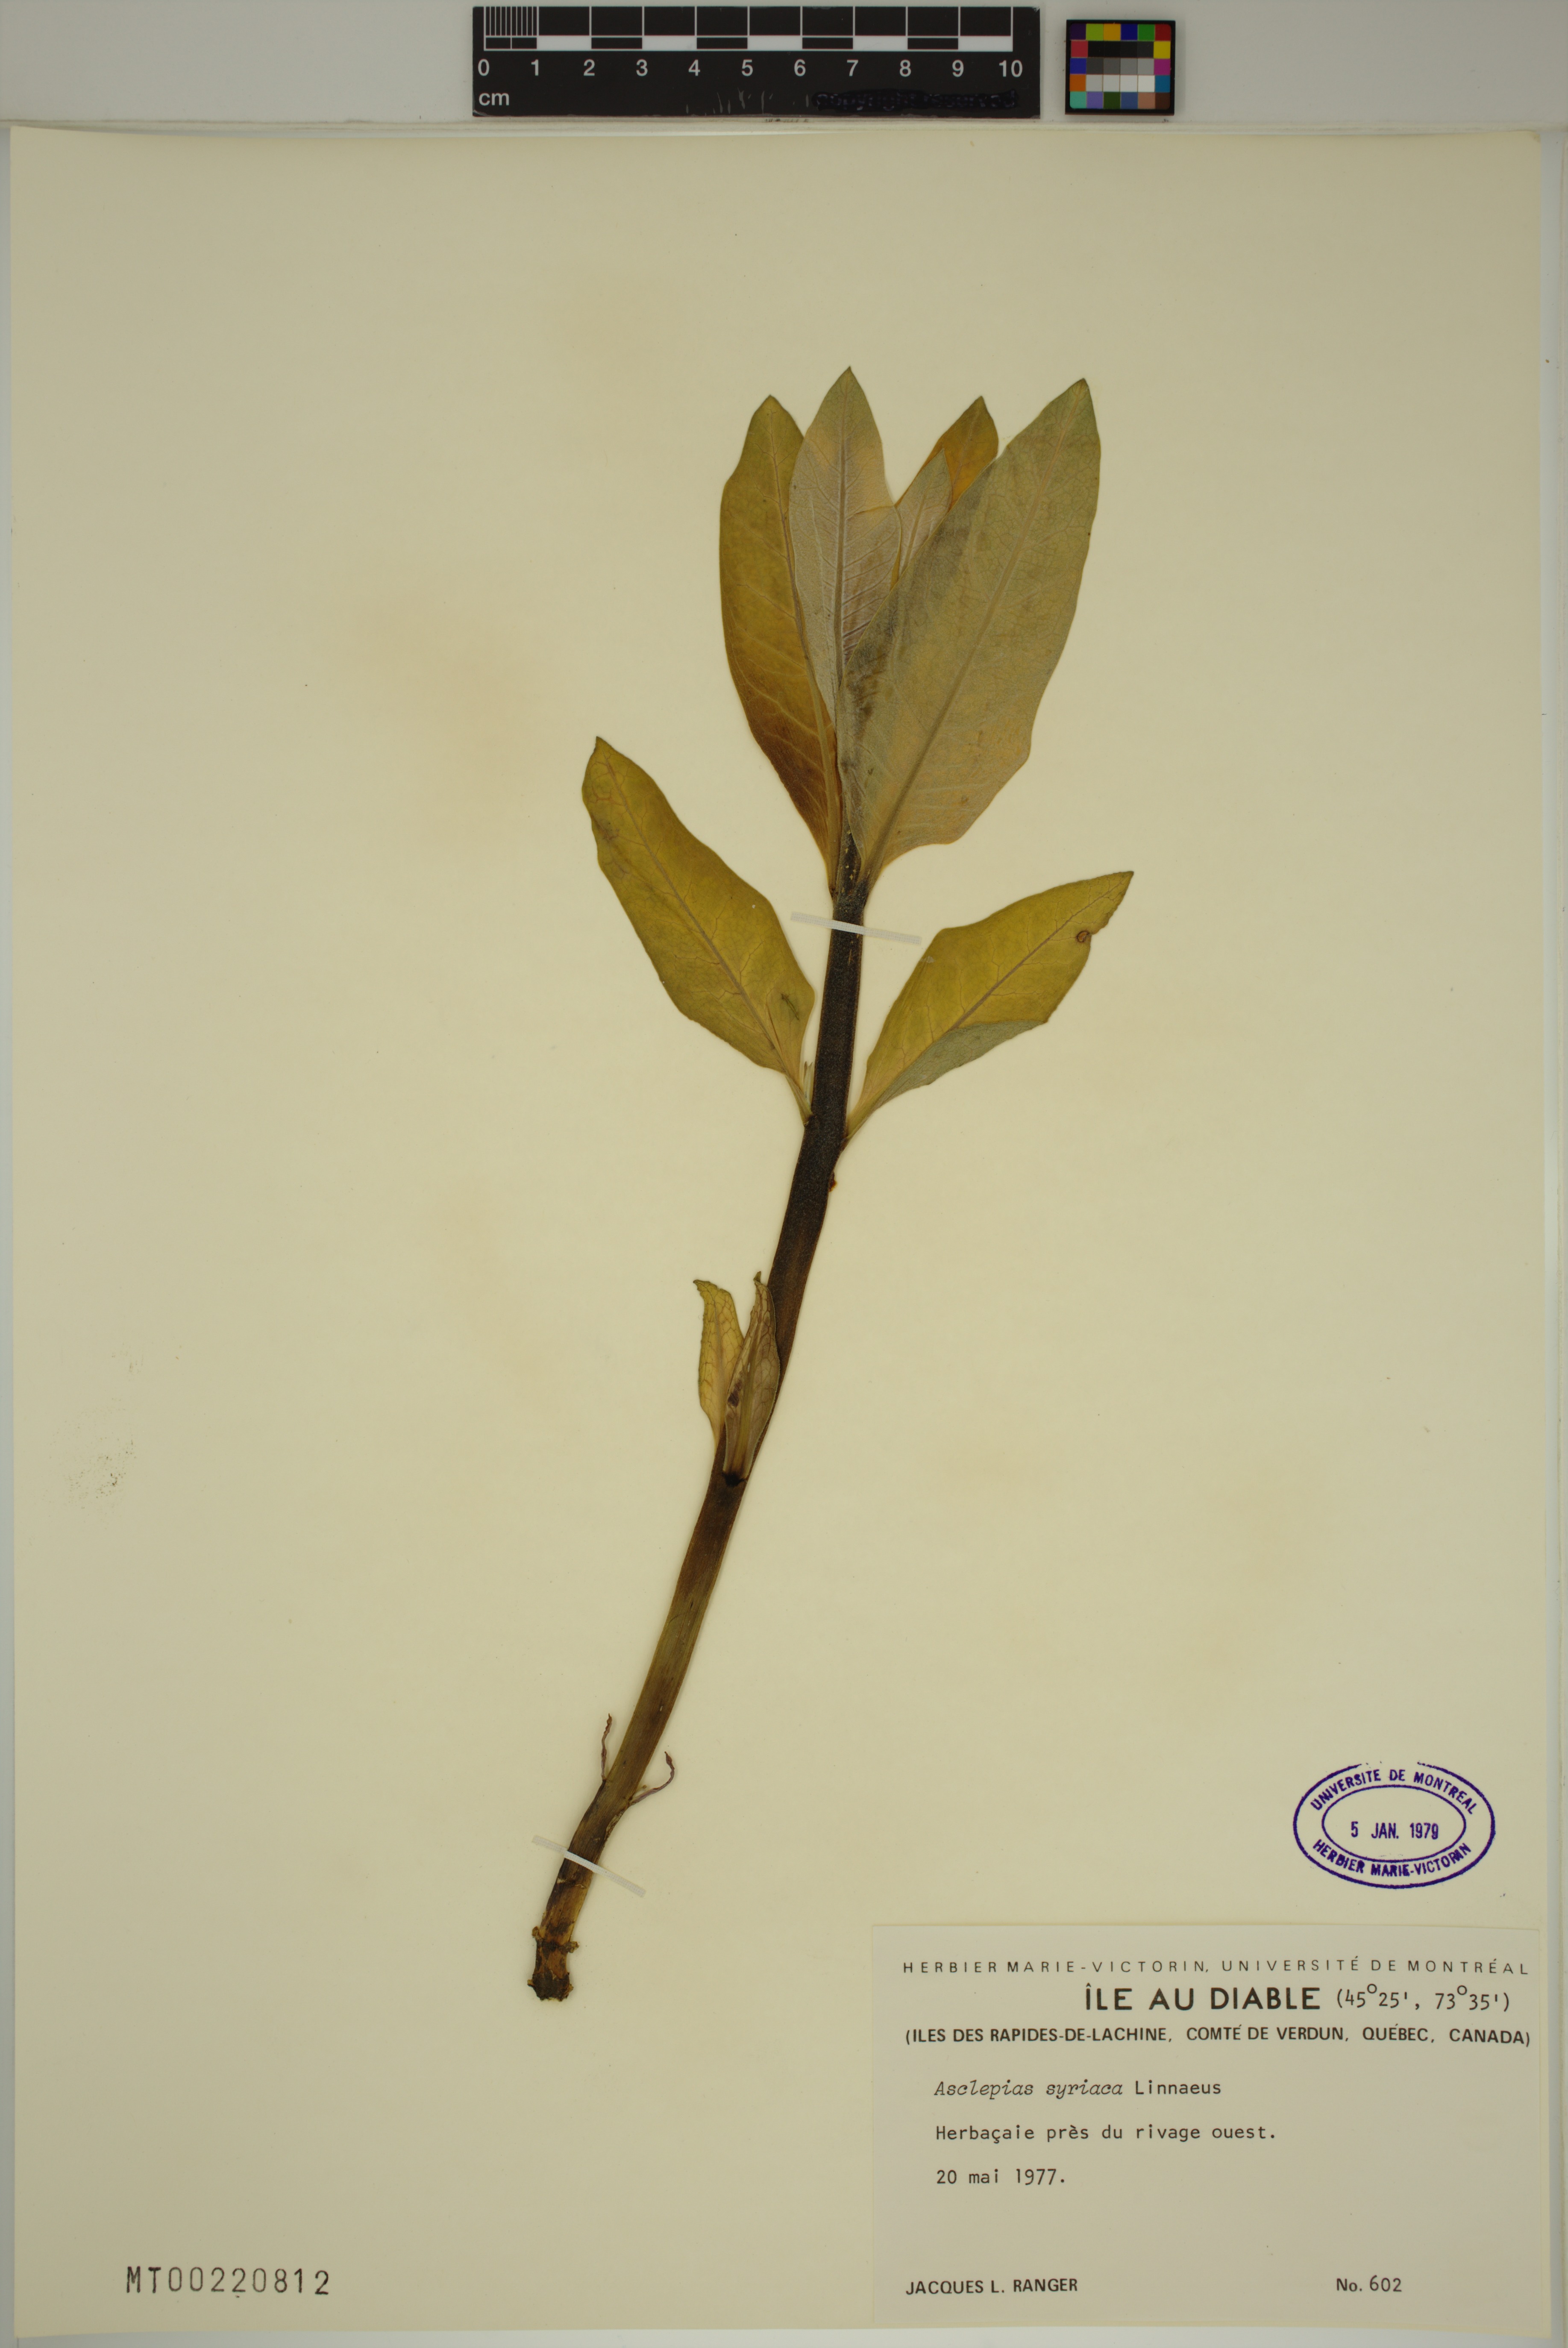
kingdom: Plantae
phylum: Tracheophyta
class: Magnoliopsida
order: Gentianales
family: Apocynaceae
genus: Asclepias
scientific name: Asclepias syriaca
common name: Common milkweed
